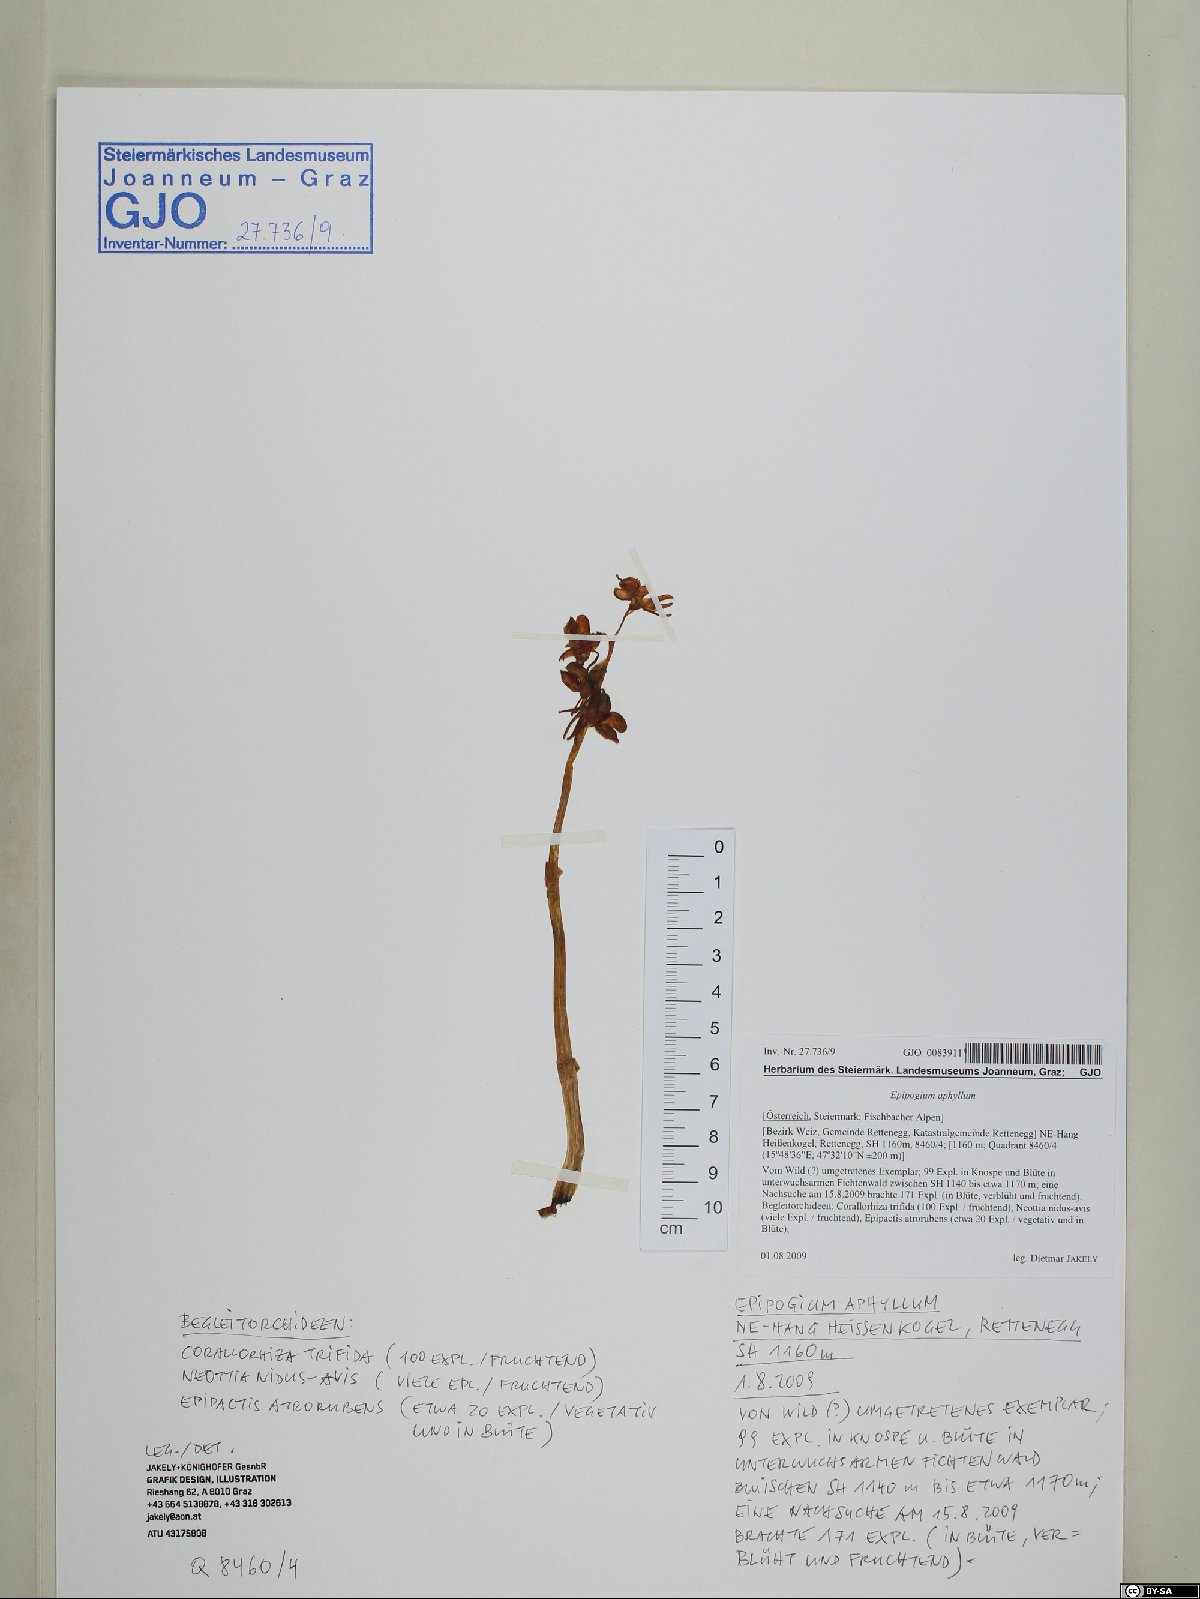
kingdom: Plantae
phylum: Tracheophyta
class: Liliopsida
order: Asparagales
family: Orchidaceae
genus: Epipogium
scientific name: Epipogium aphyllum
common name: Ghost orchid
